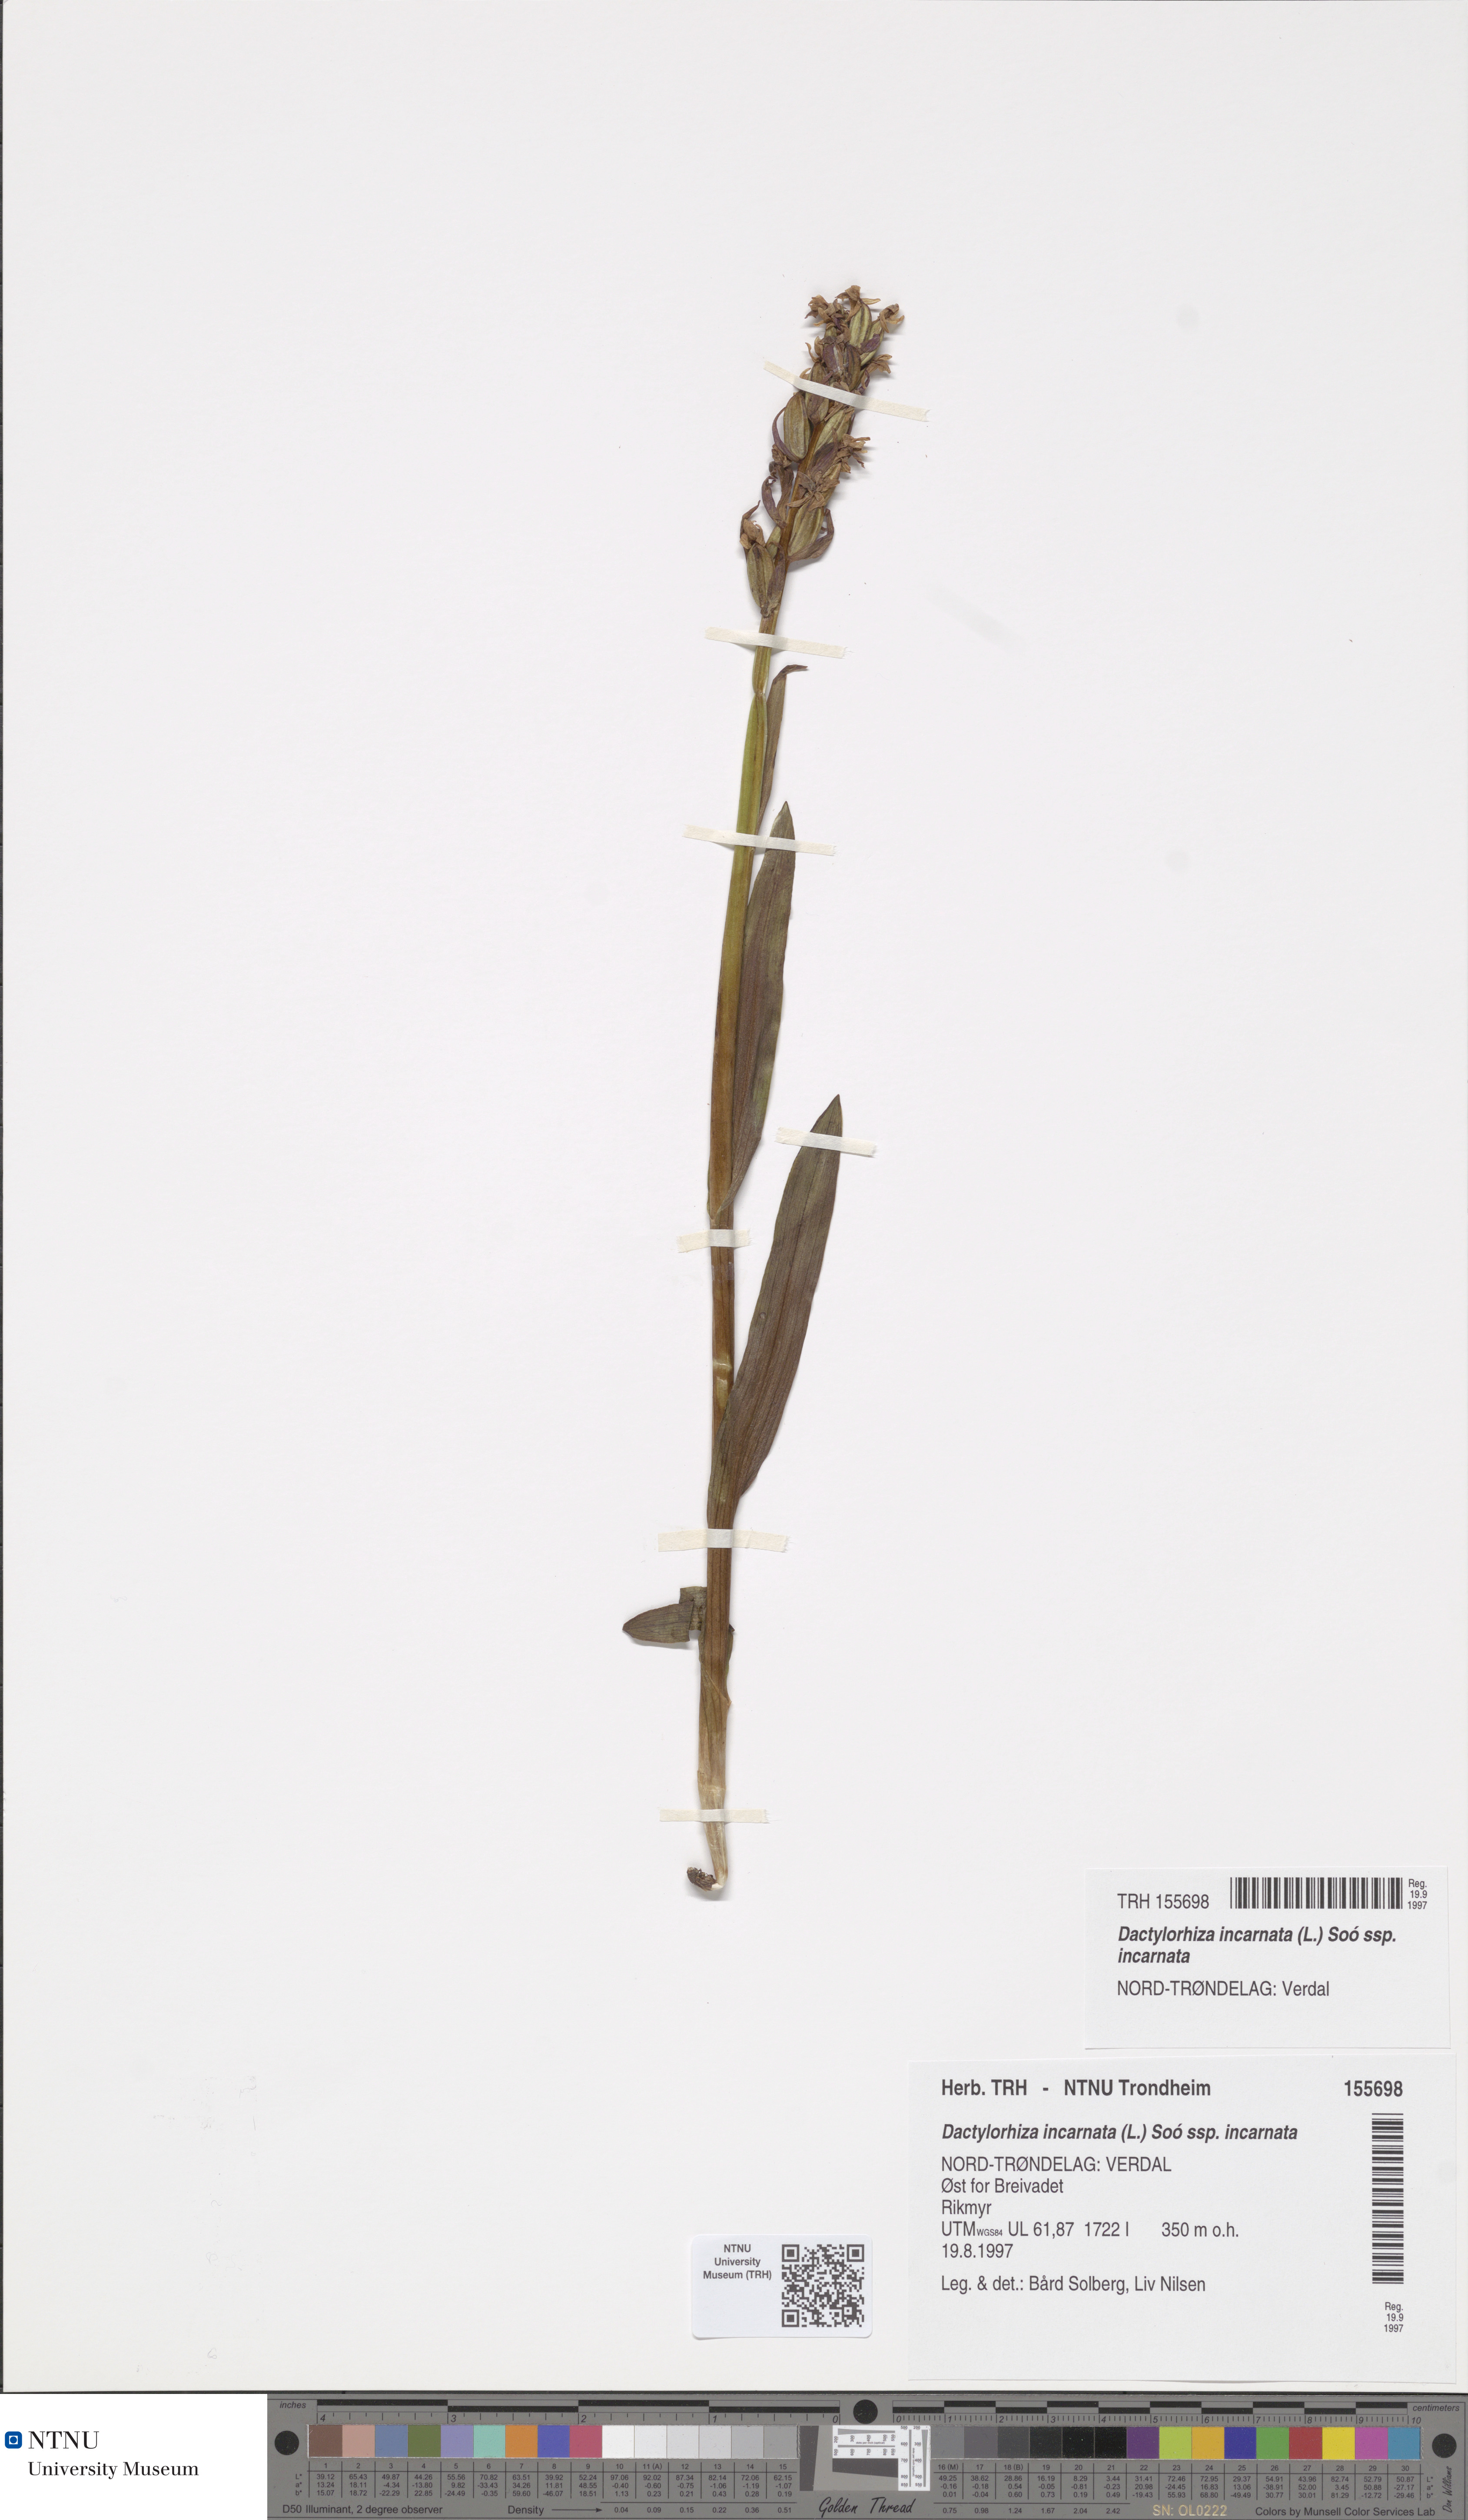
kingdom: Plantae
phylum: Tracheophyta
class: Liliopsida
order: Asparagales
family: Orchidaceae
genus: Dactylorhiza
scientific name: Dactylorhiza incarnata
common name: Early marsh-orchid
